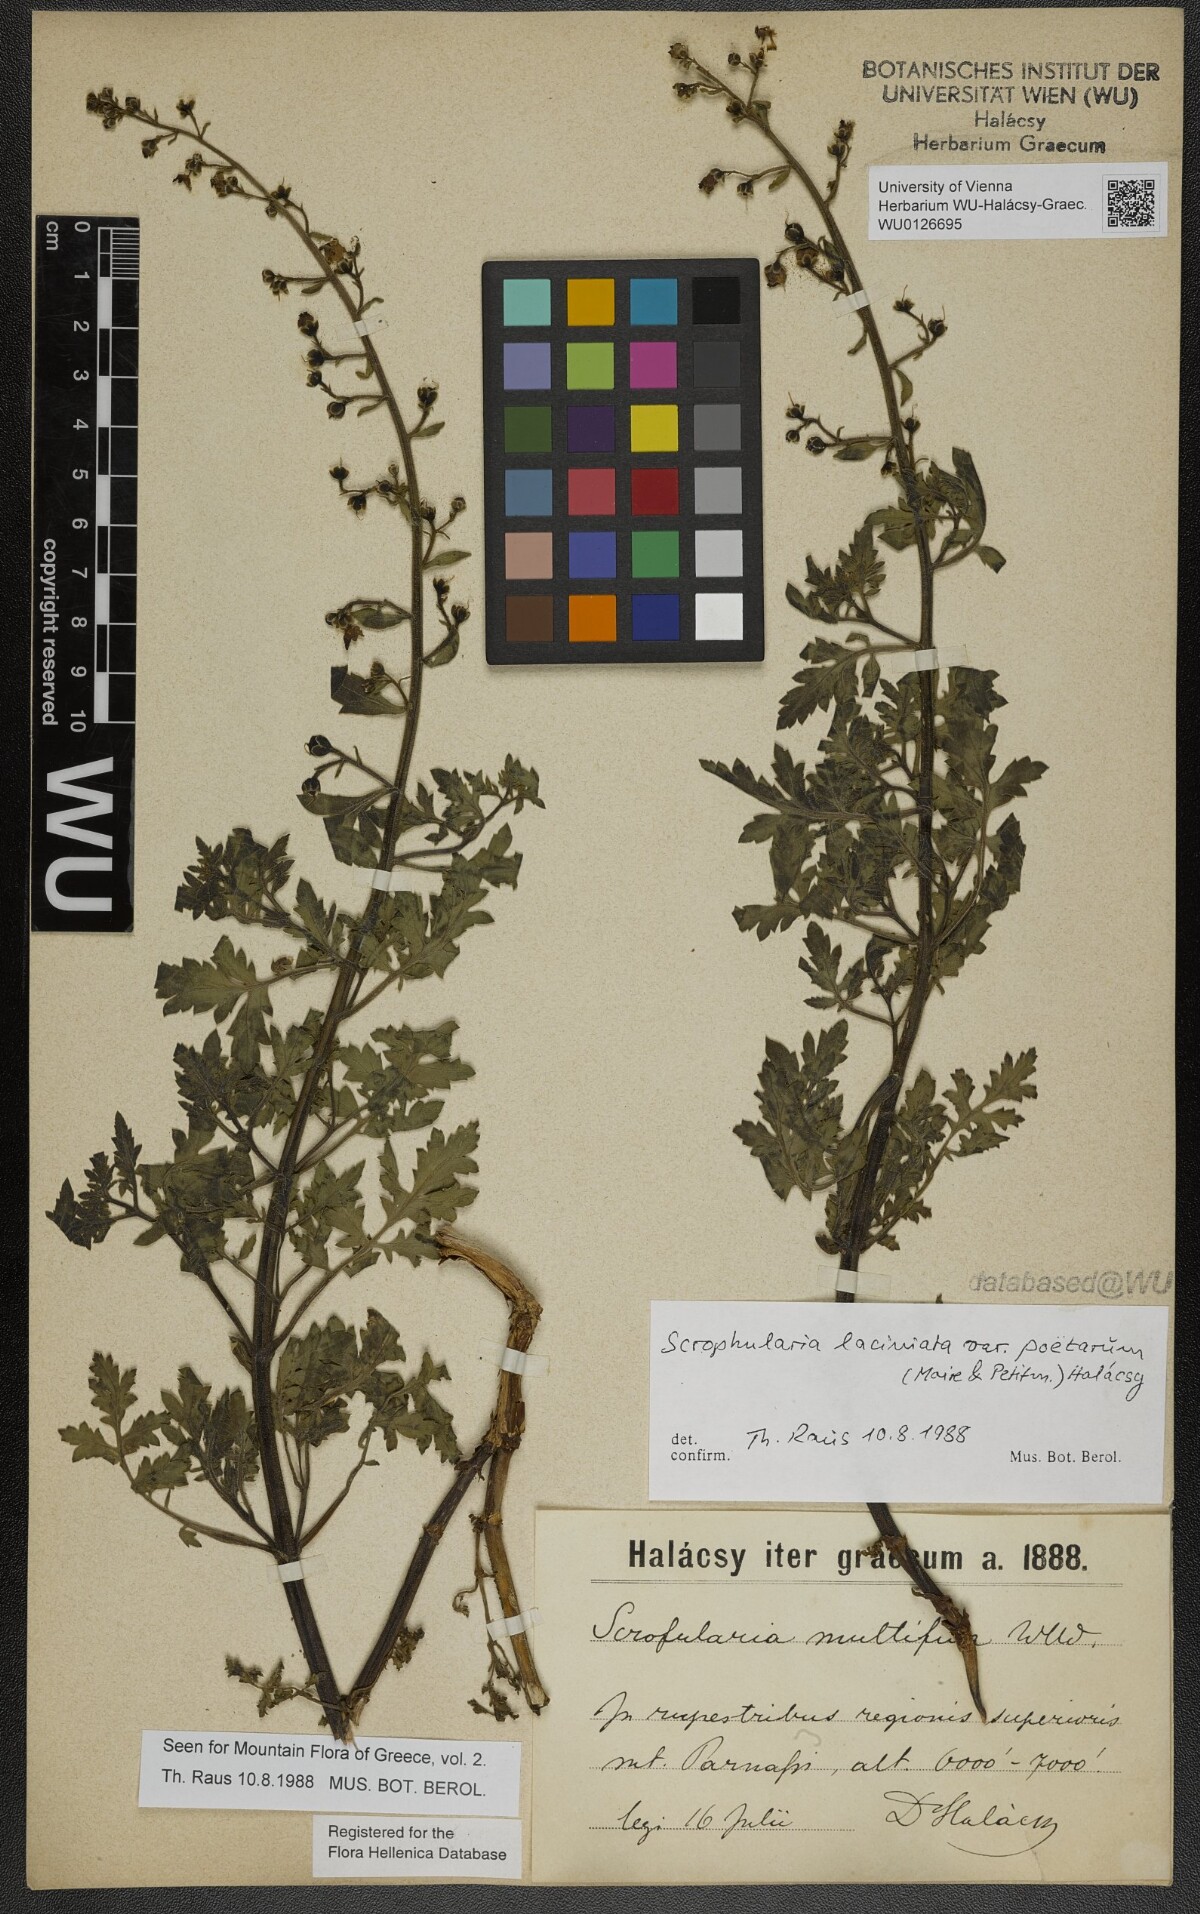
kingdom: Plantae
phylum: Tracheophyta
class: Magnoliopsida
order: Lamiales
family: Scrophulariaceae
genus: Scrophularia
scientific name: Scrophularia laciniata
